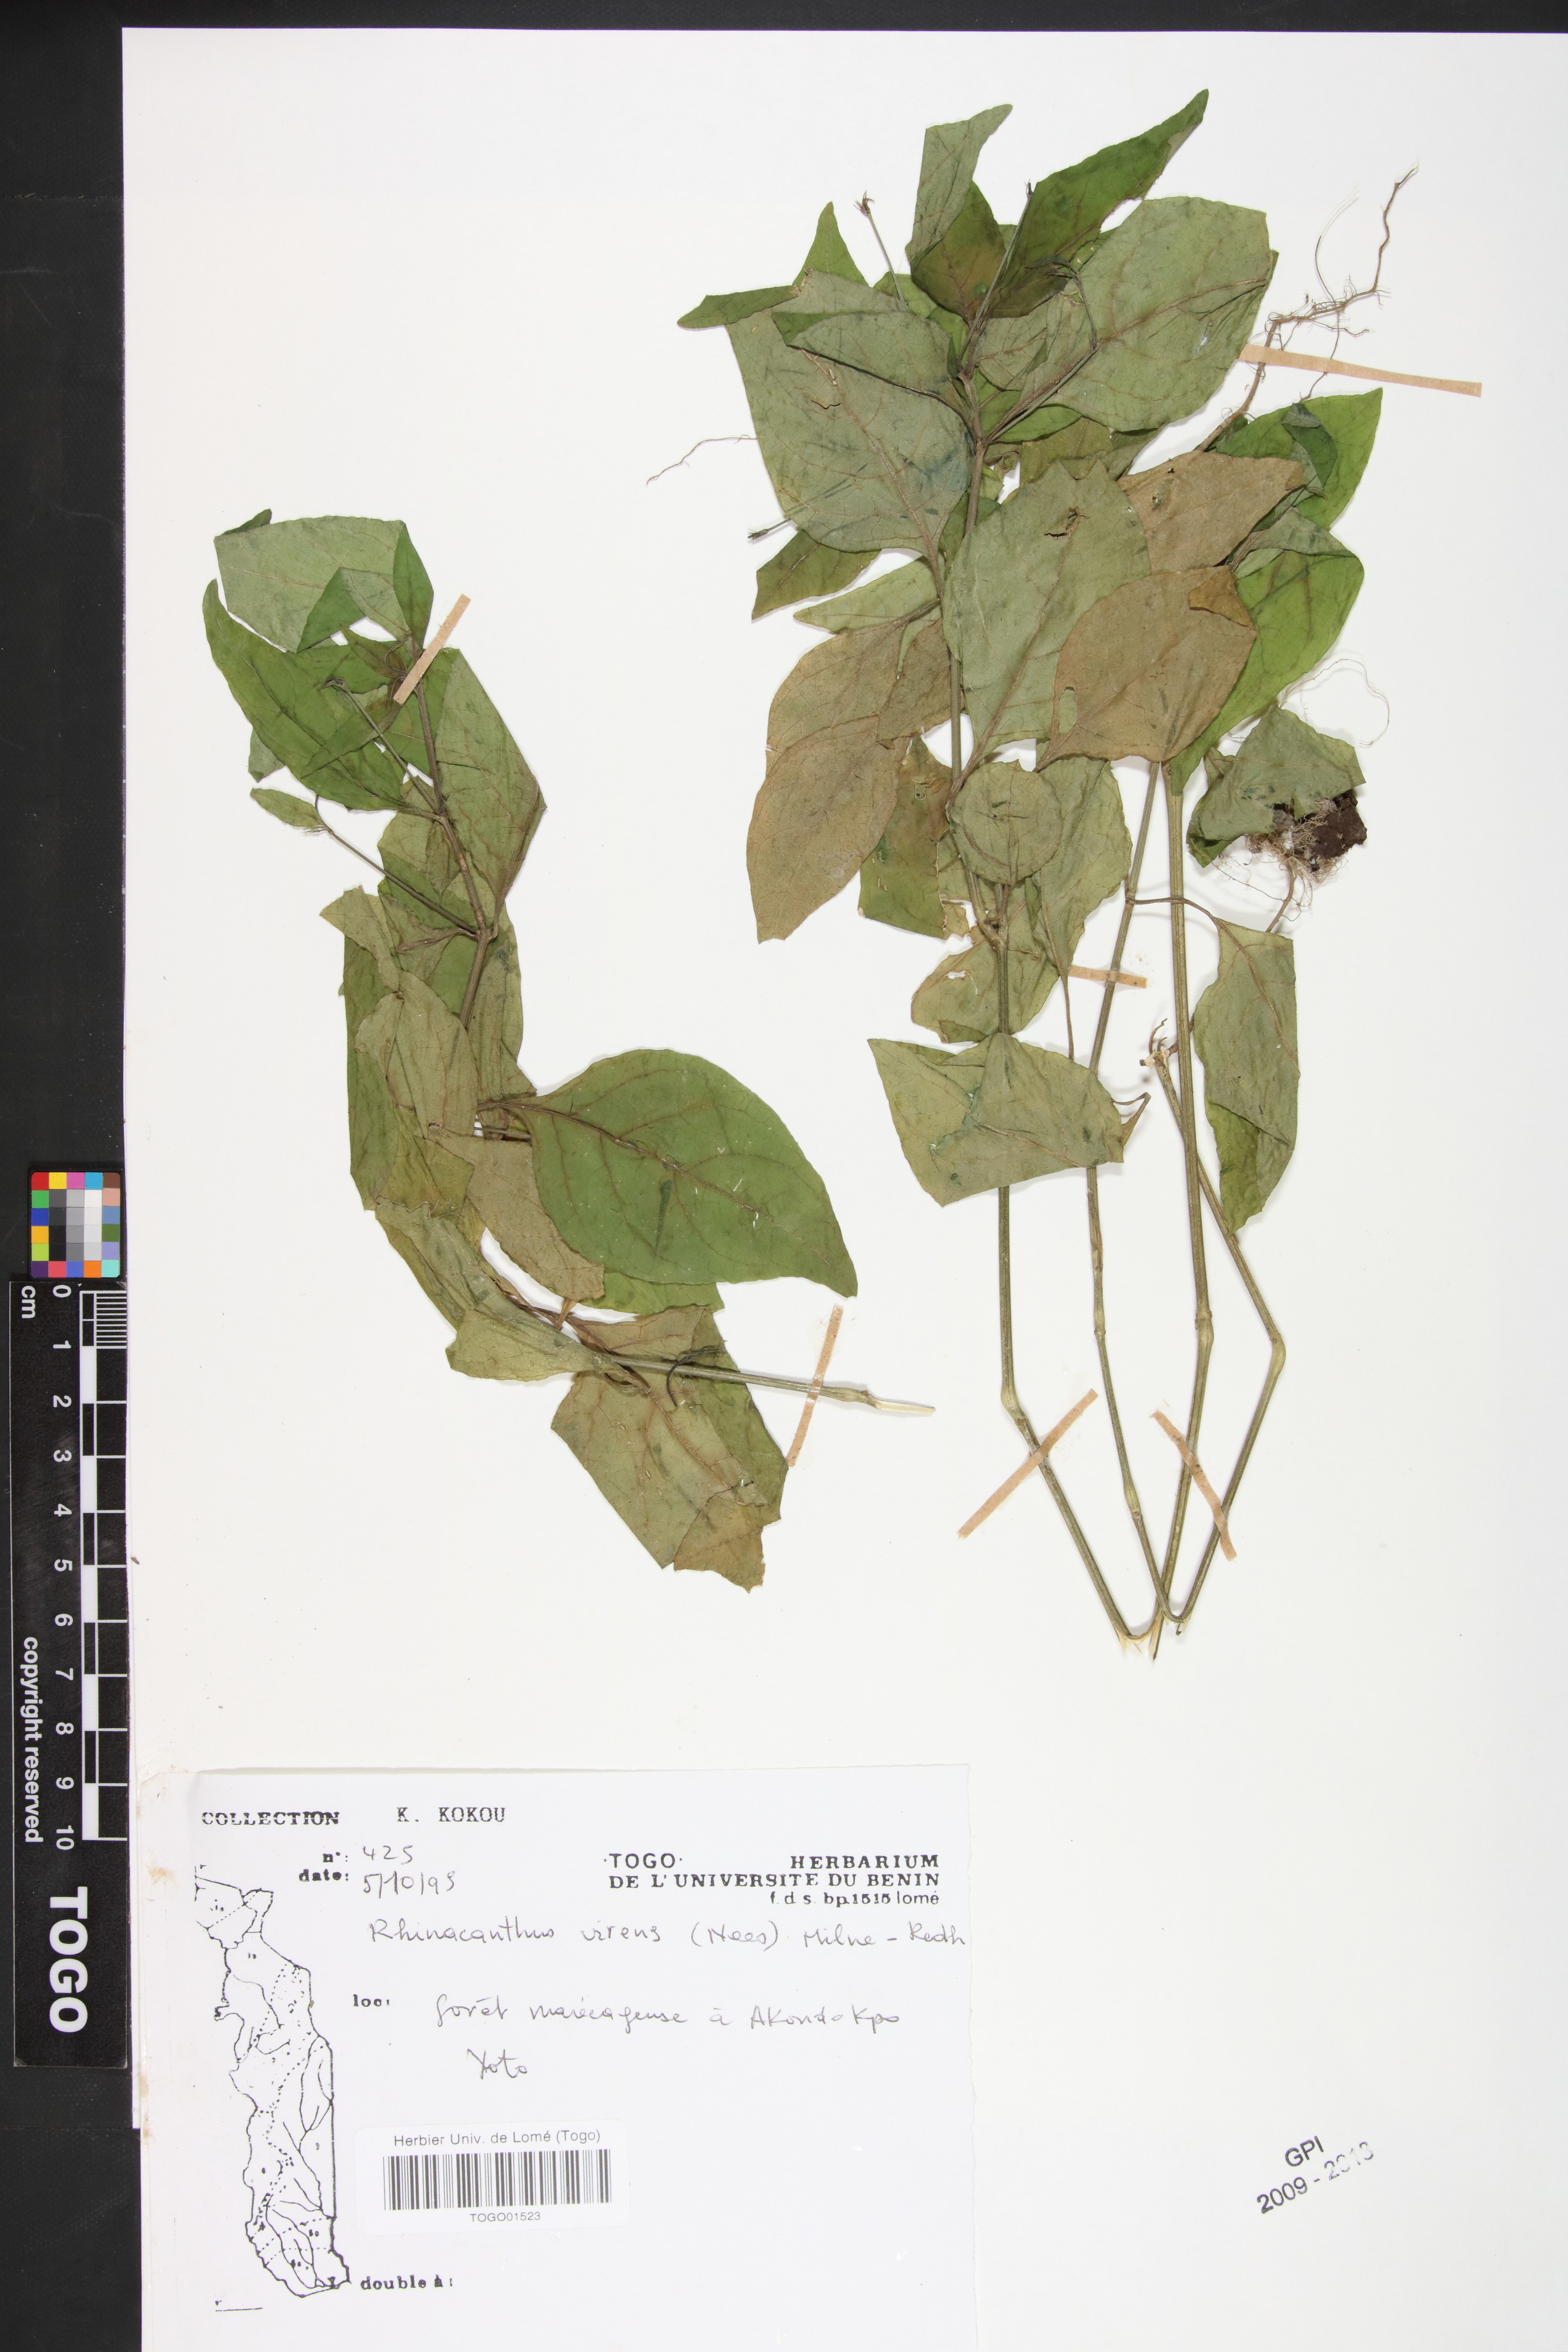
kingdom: Plantae
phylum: Tracheophyta
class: Magnoliopsida
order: Lamiales
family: Acanthaceae
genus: Rhinacanthus
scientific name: Rhinacanthus virens
